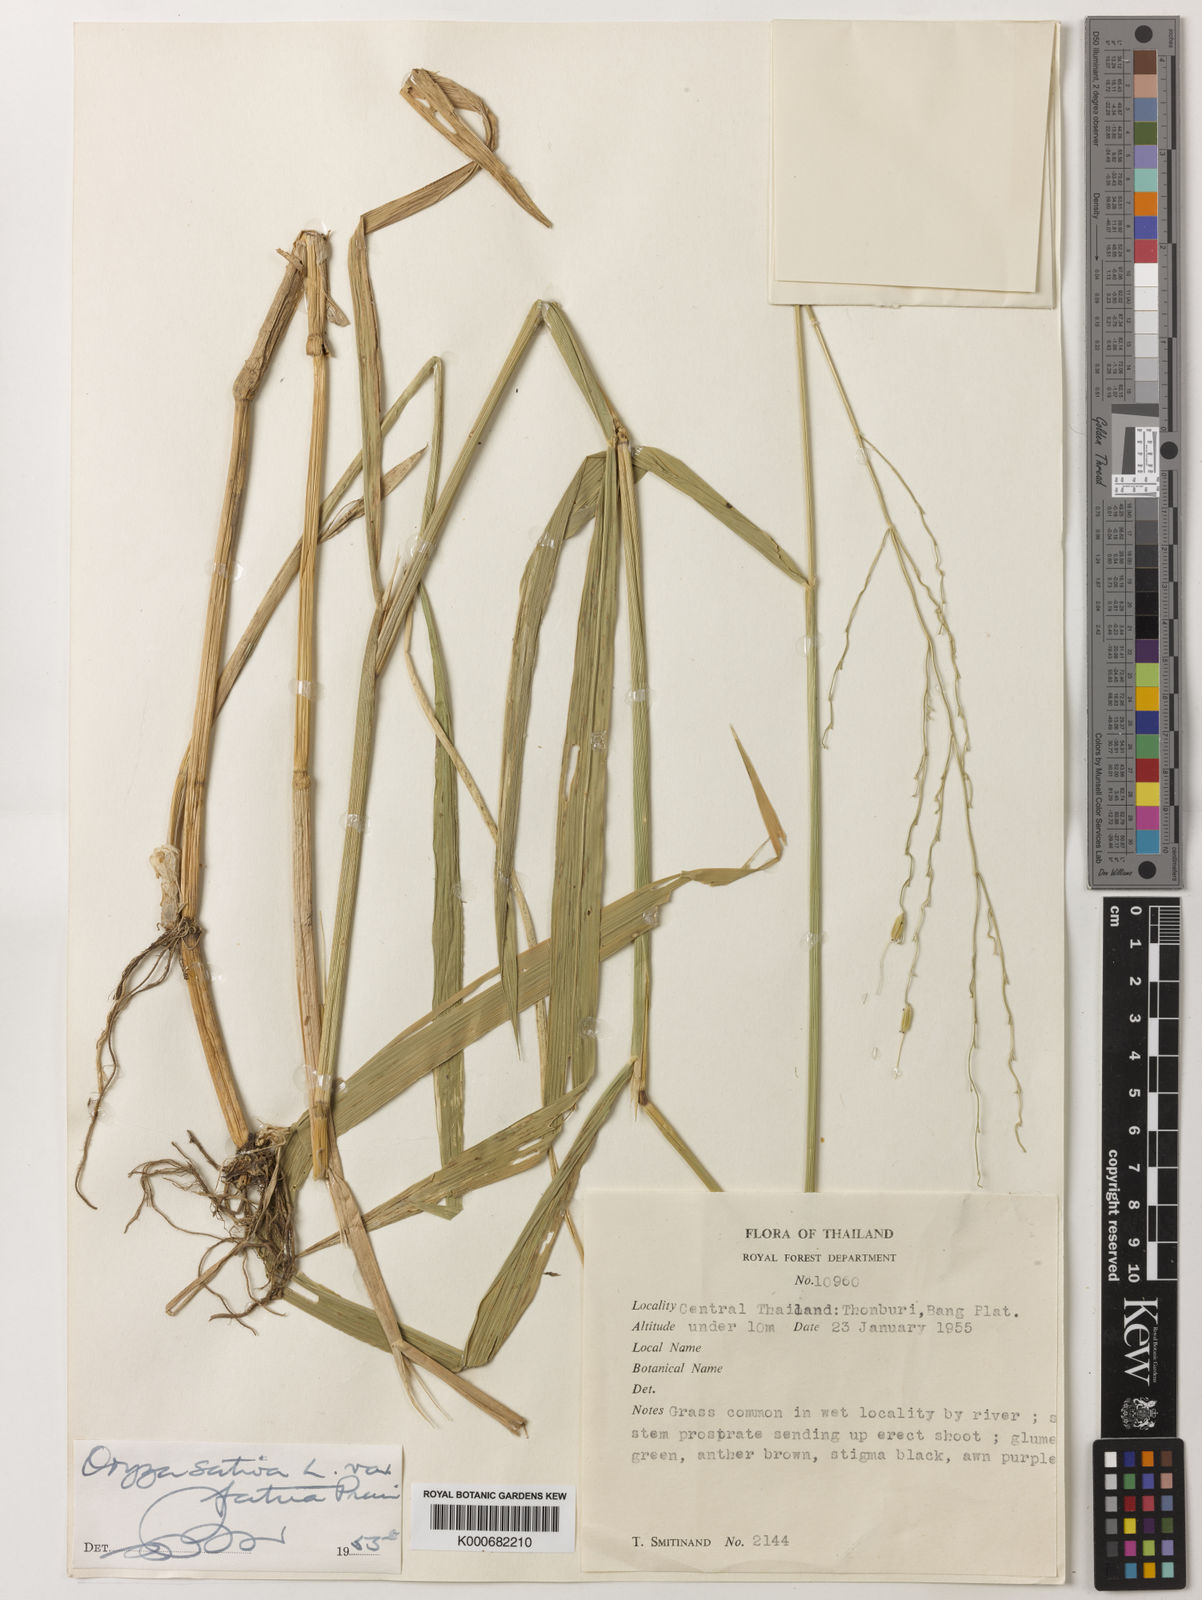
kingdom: Plantae
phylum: Tracheophyta
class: Liliopsida
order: Poales
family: Poaceae
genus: Oryza
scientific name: Oryza rufipogon
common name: Red rice
